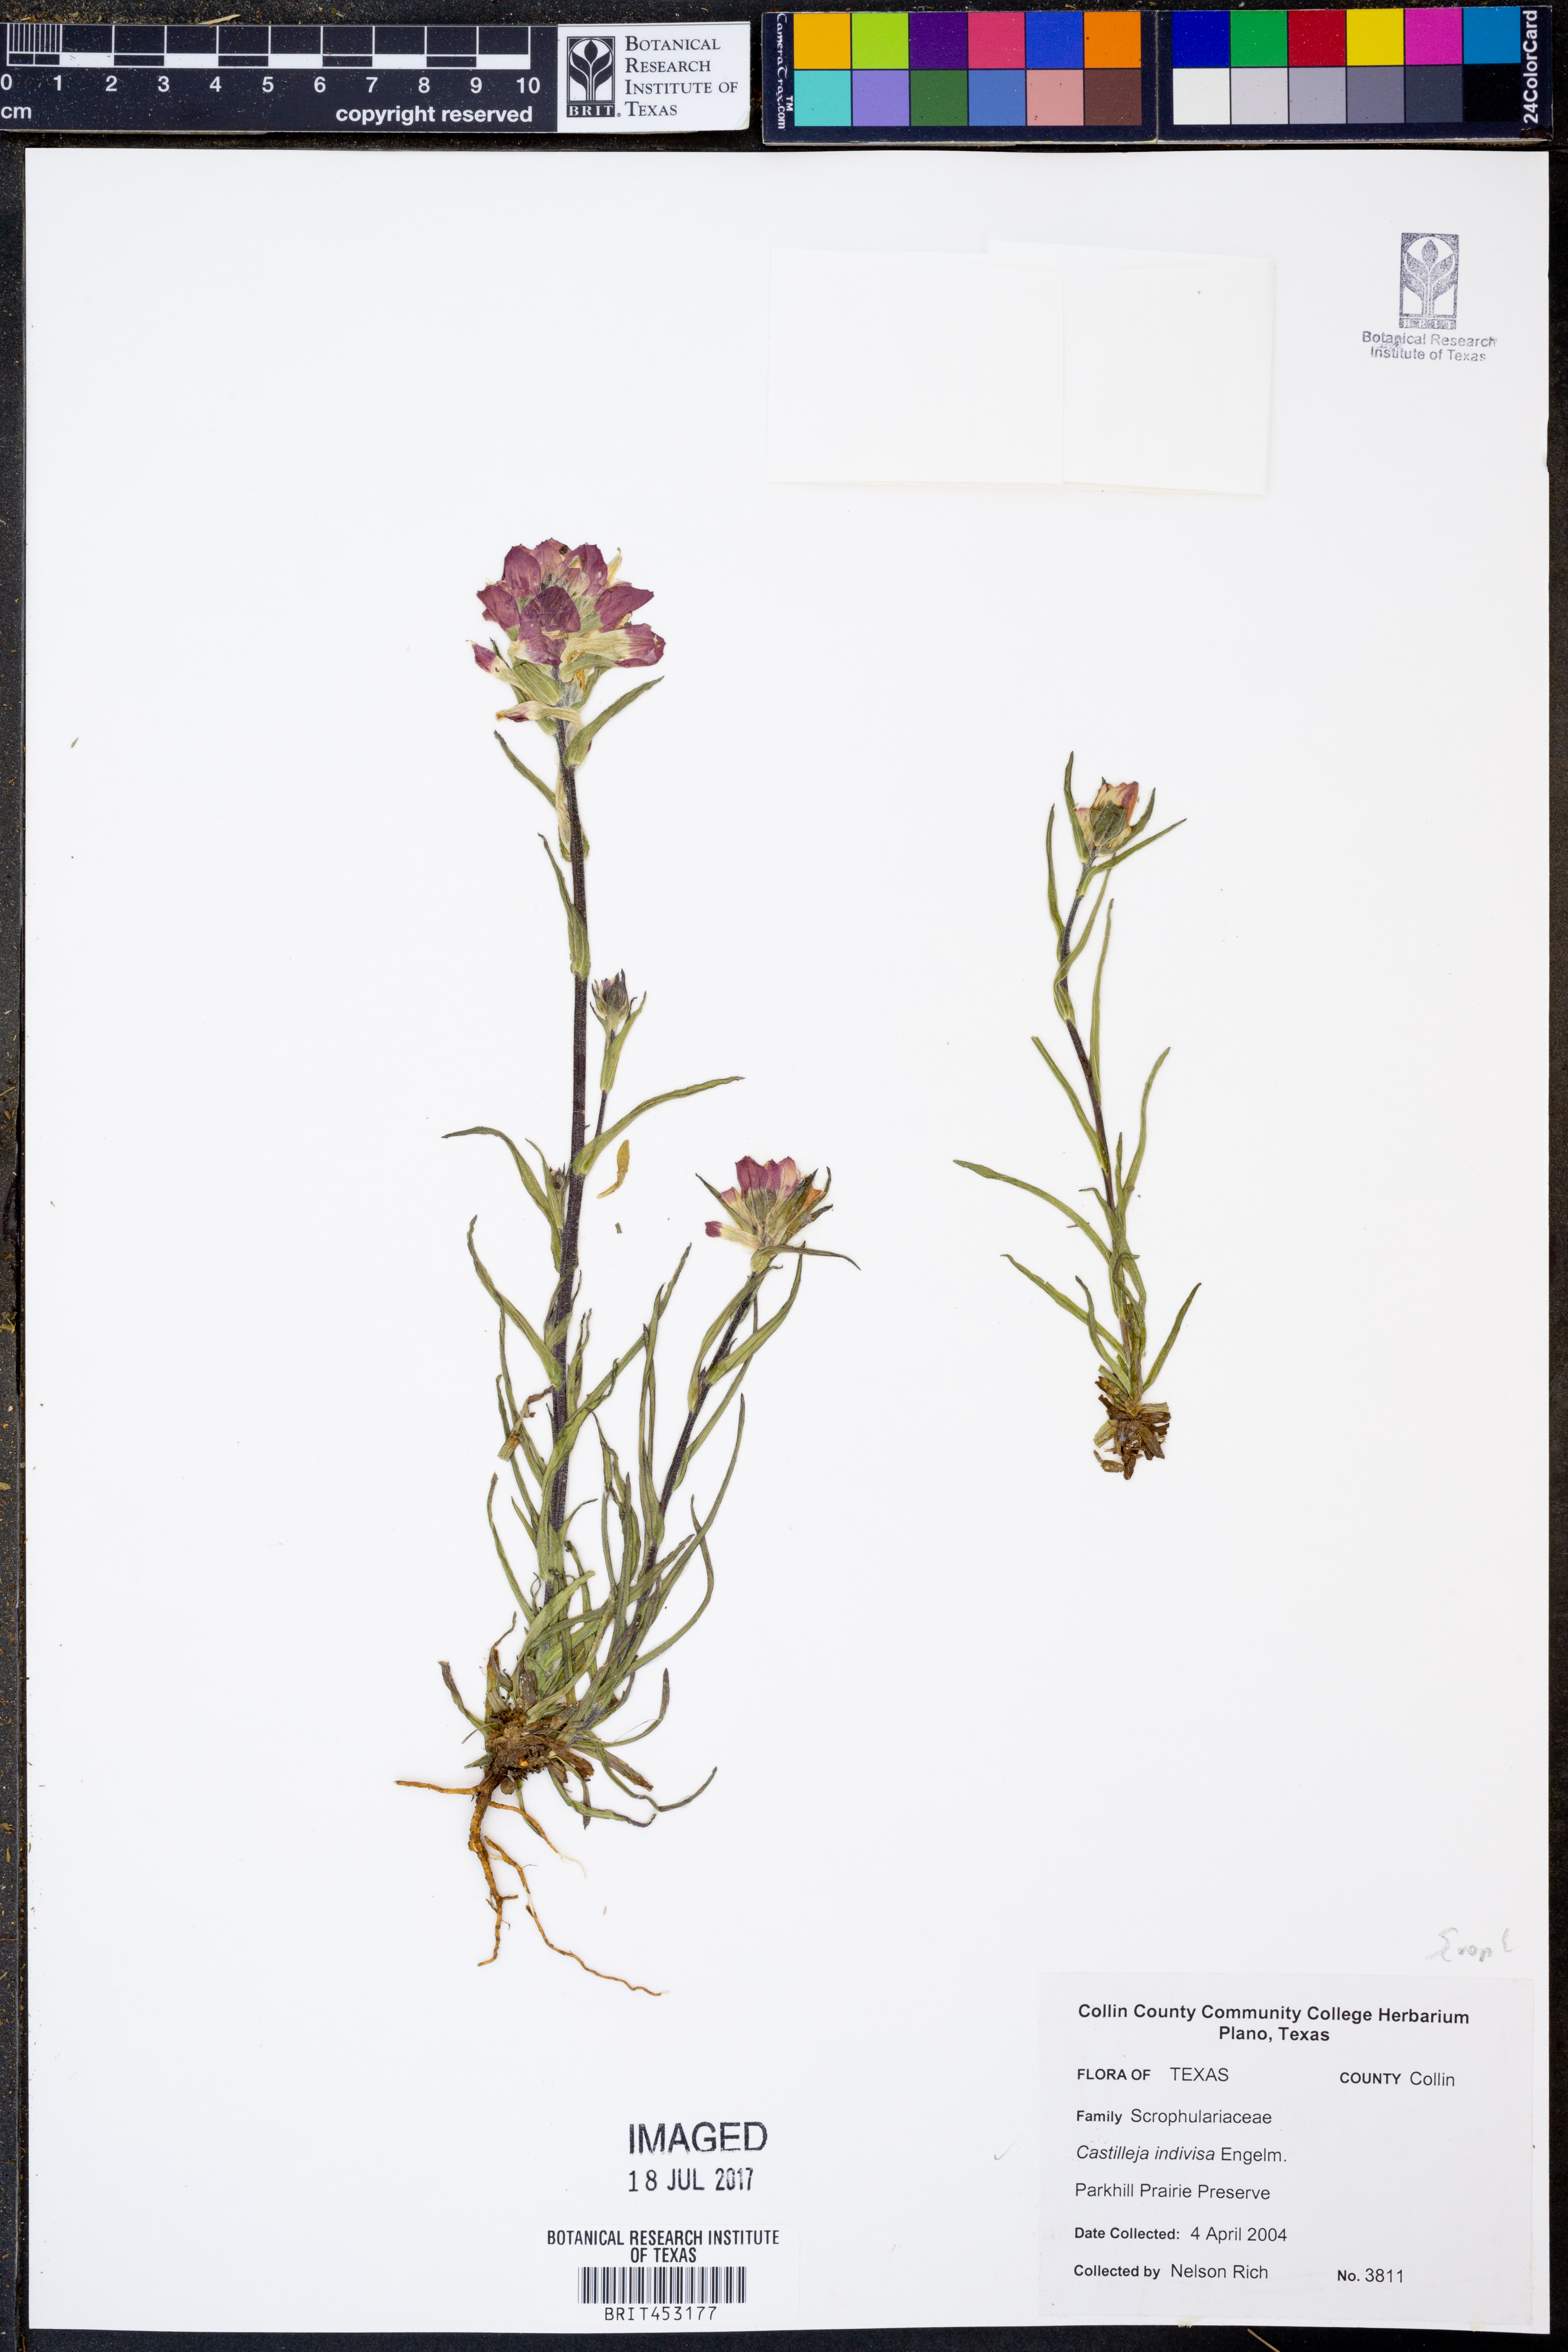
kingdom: Plantae
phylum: Tracheophyta
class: Magnoliopsida
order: Lamiales
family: Orobanchaceae
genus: Castilleja
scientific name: Castilleja indivisa
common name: Texas paintbrush
